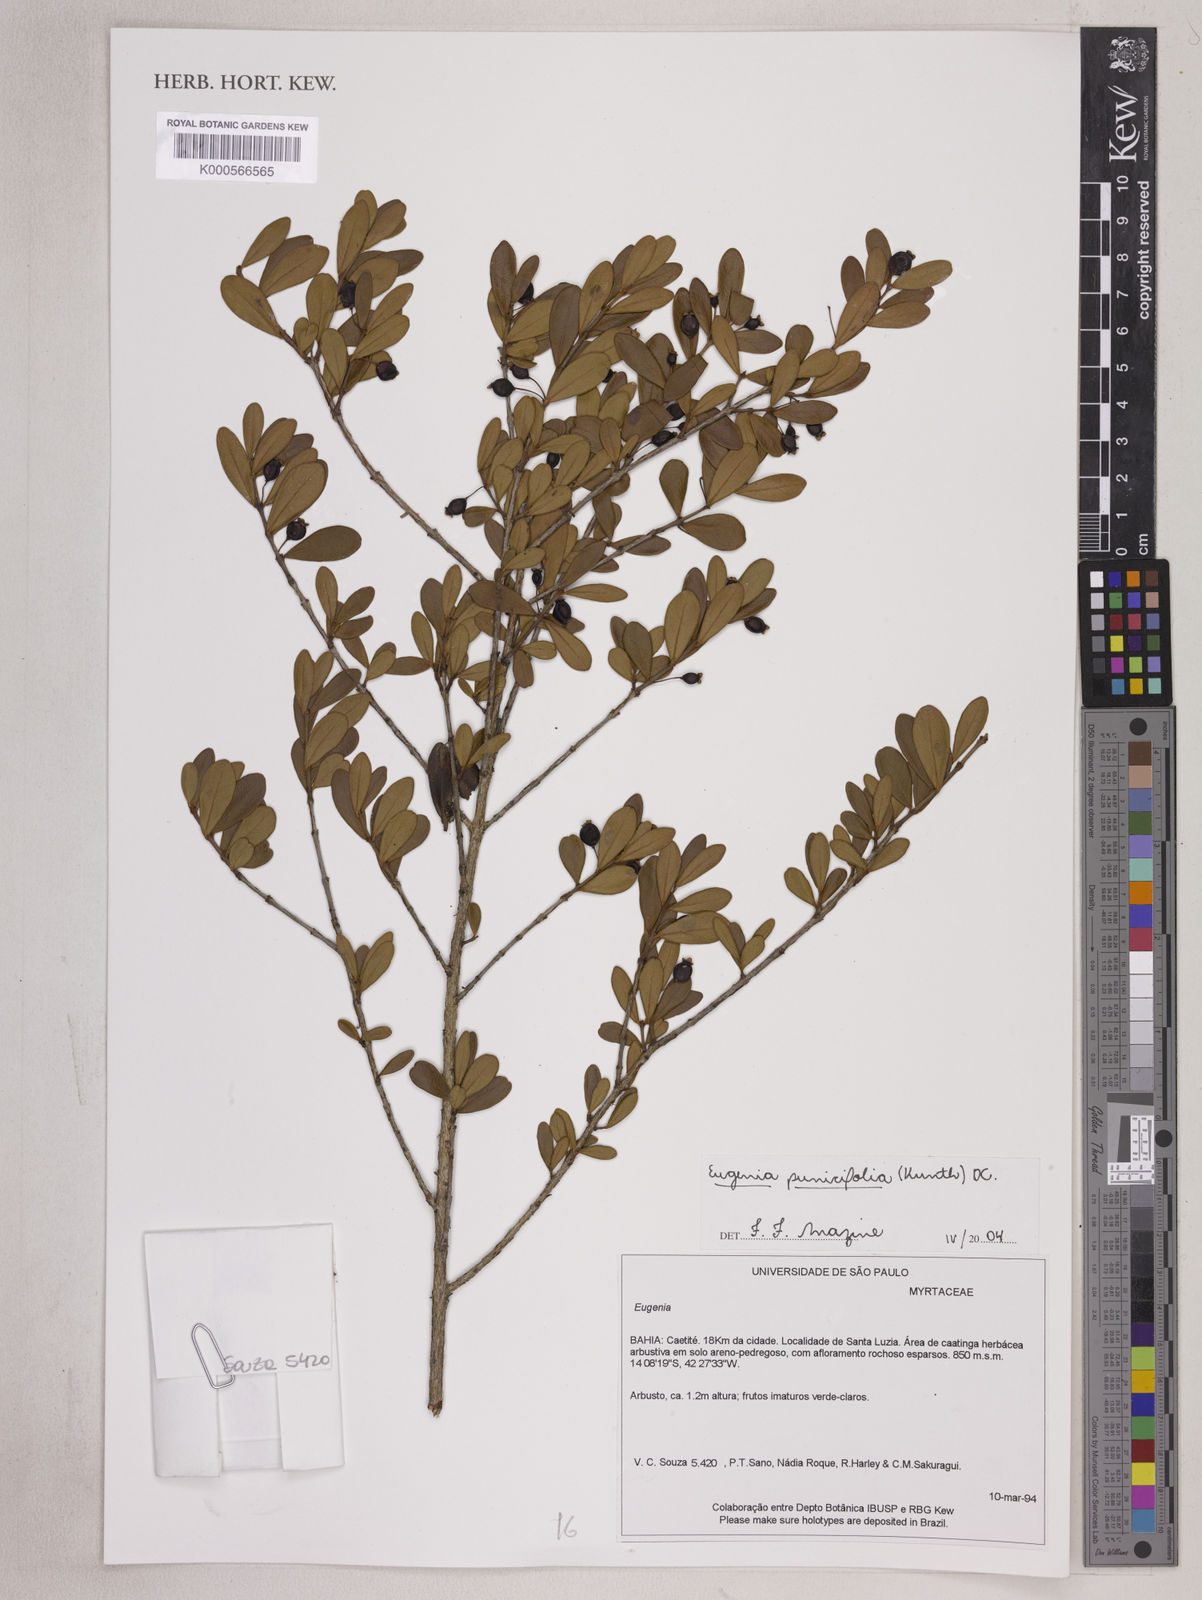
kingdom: Plantae
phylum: Tracheophyta
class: Magnoliopsida
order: Myrtales
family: Myrtaceae
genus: Eugenia
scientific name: Eugenia punicifolia
